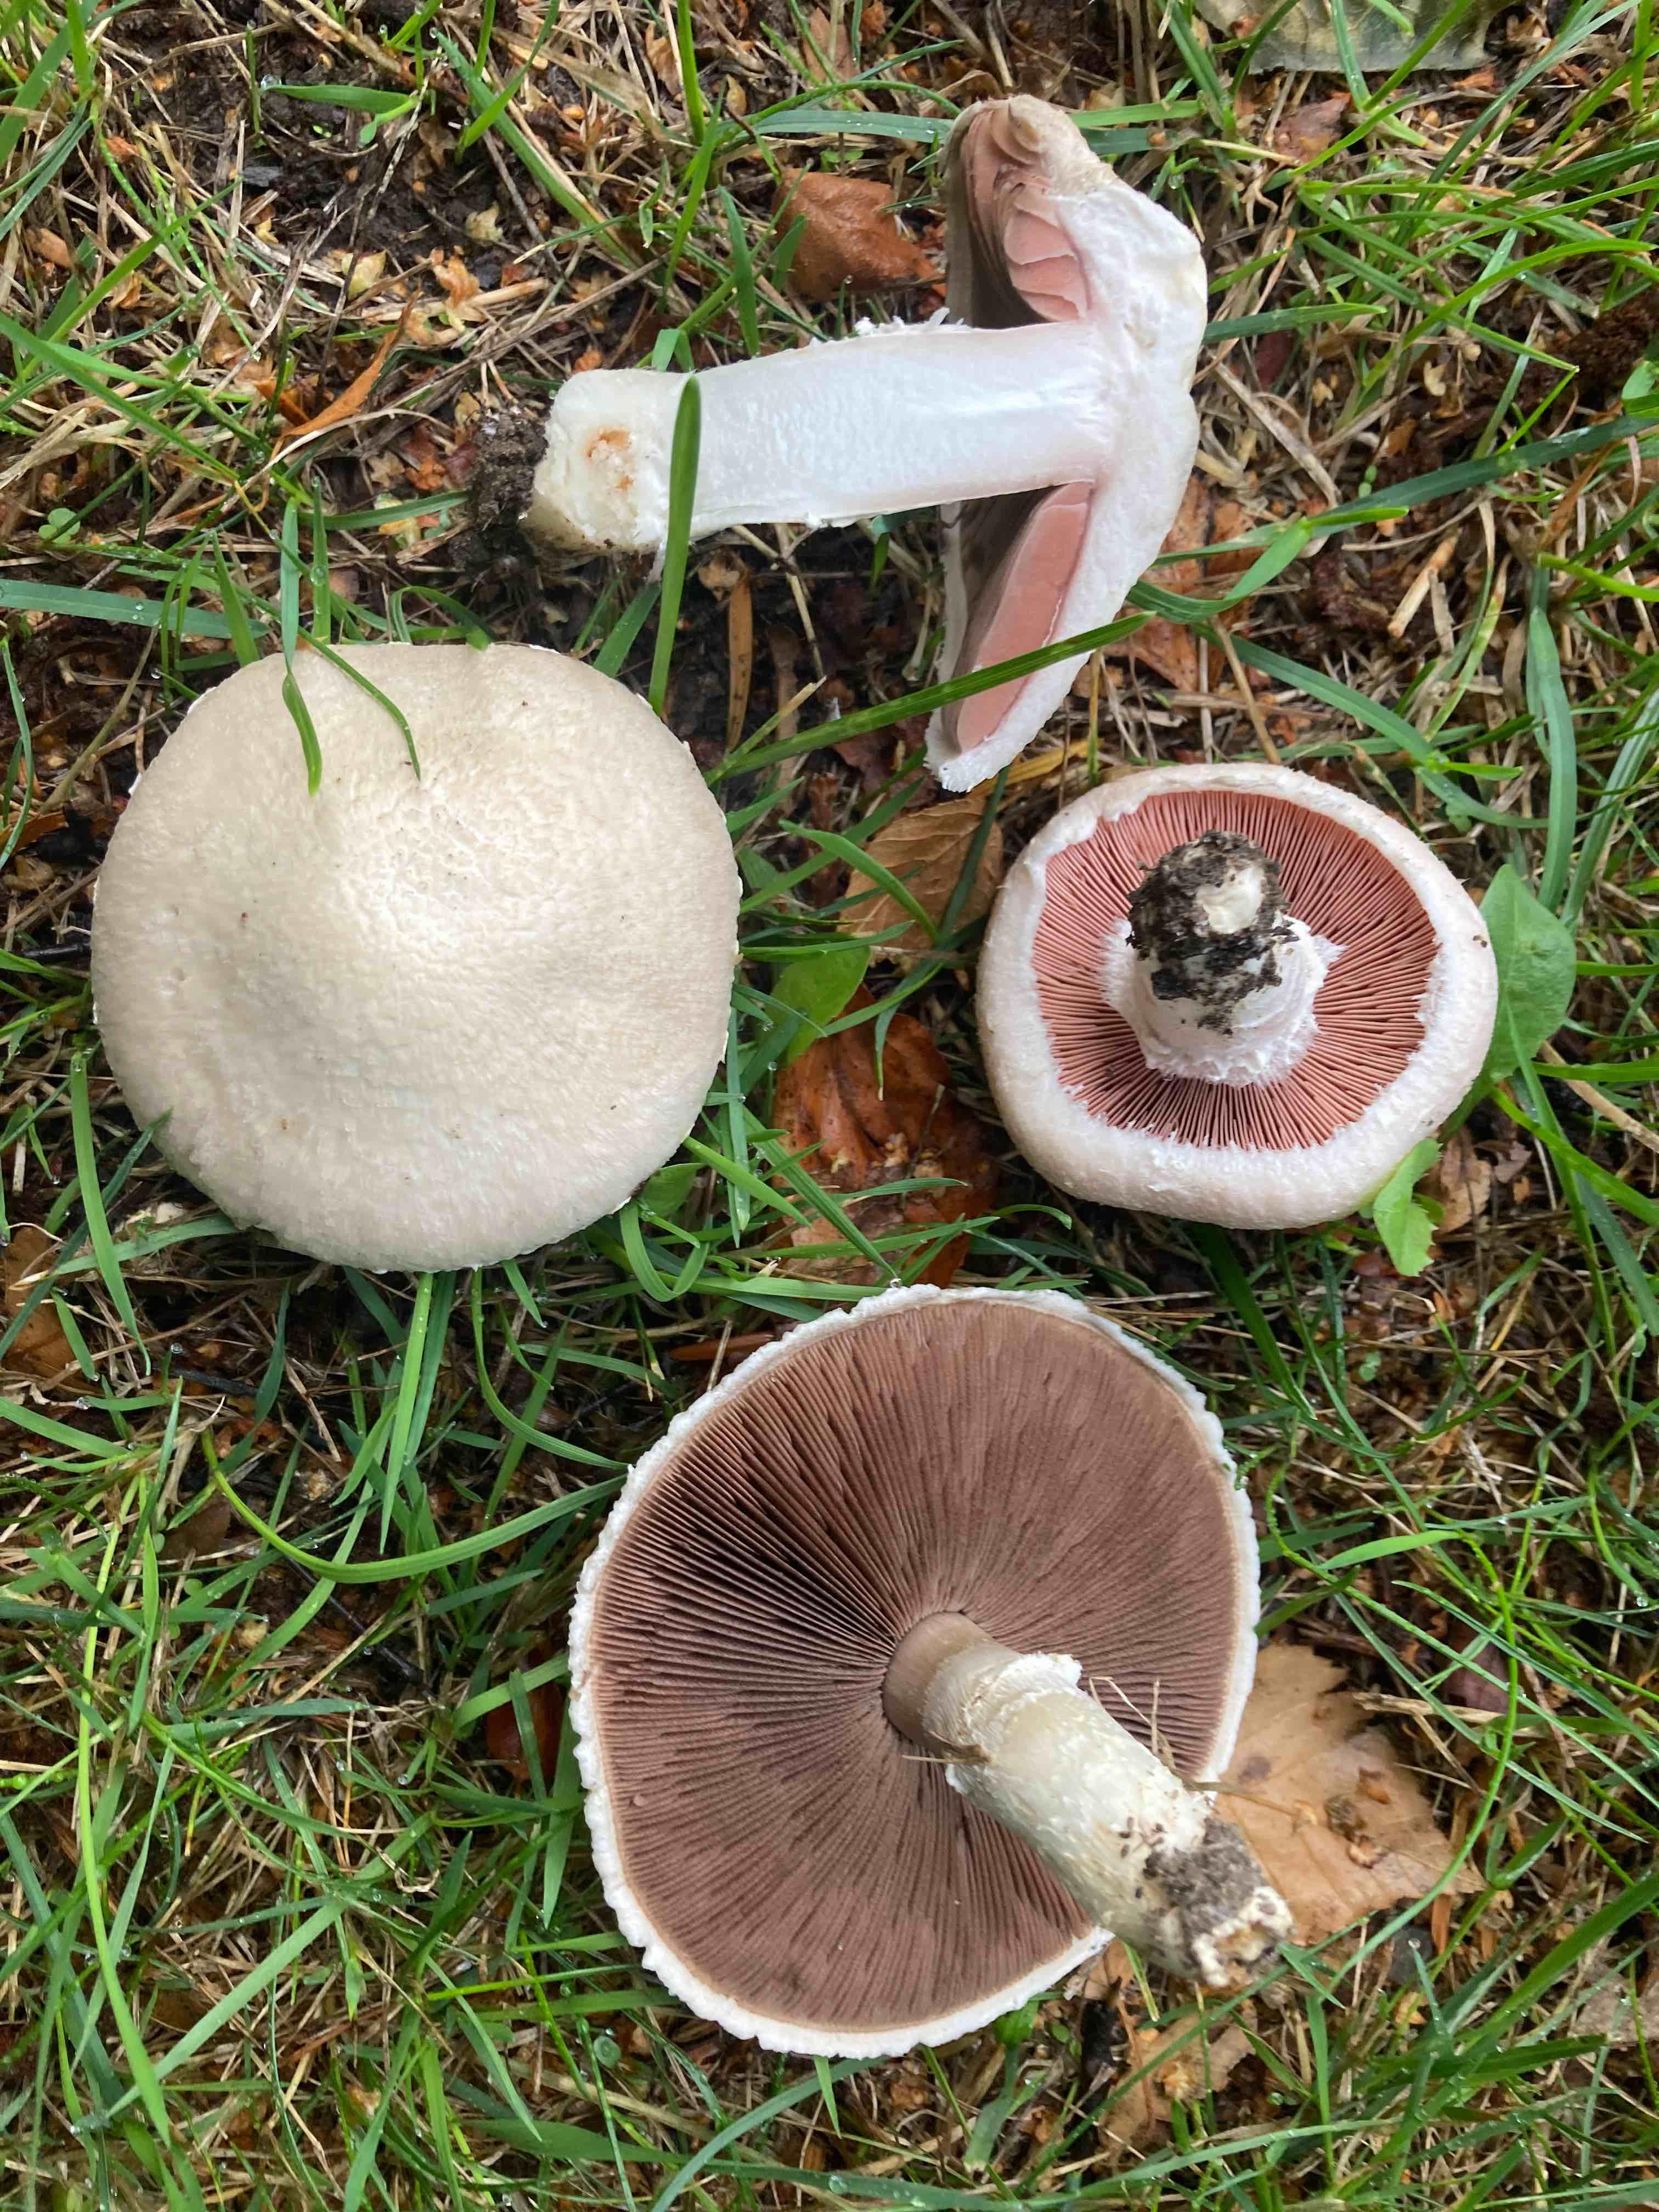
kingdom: Fungi
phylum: Basidiomycota
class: Agaricomycetes
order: Agaricales
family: Agaricaceae
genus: Agaricus
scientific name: Agaricus campestris
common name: mark-champignon
